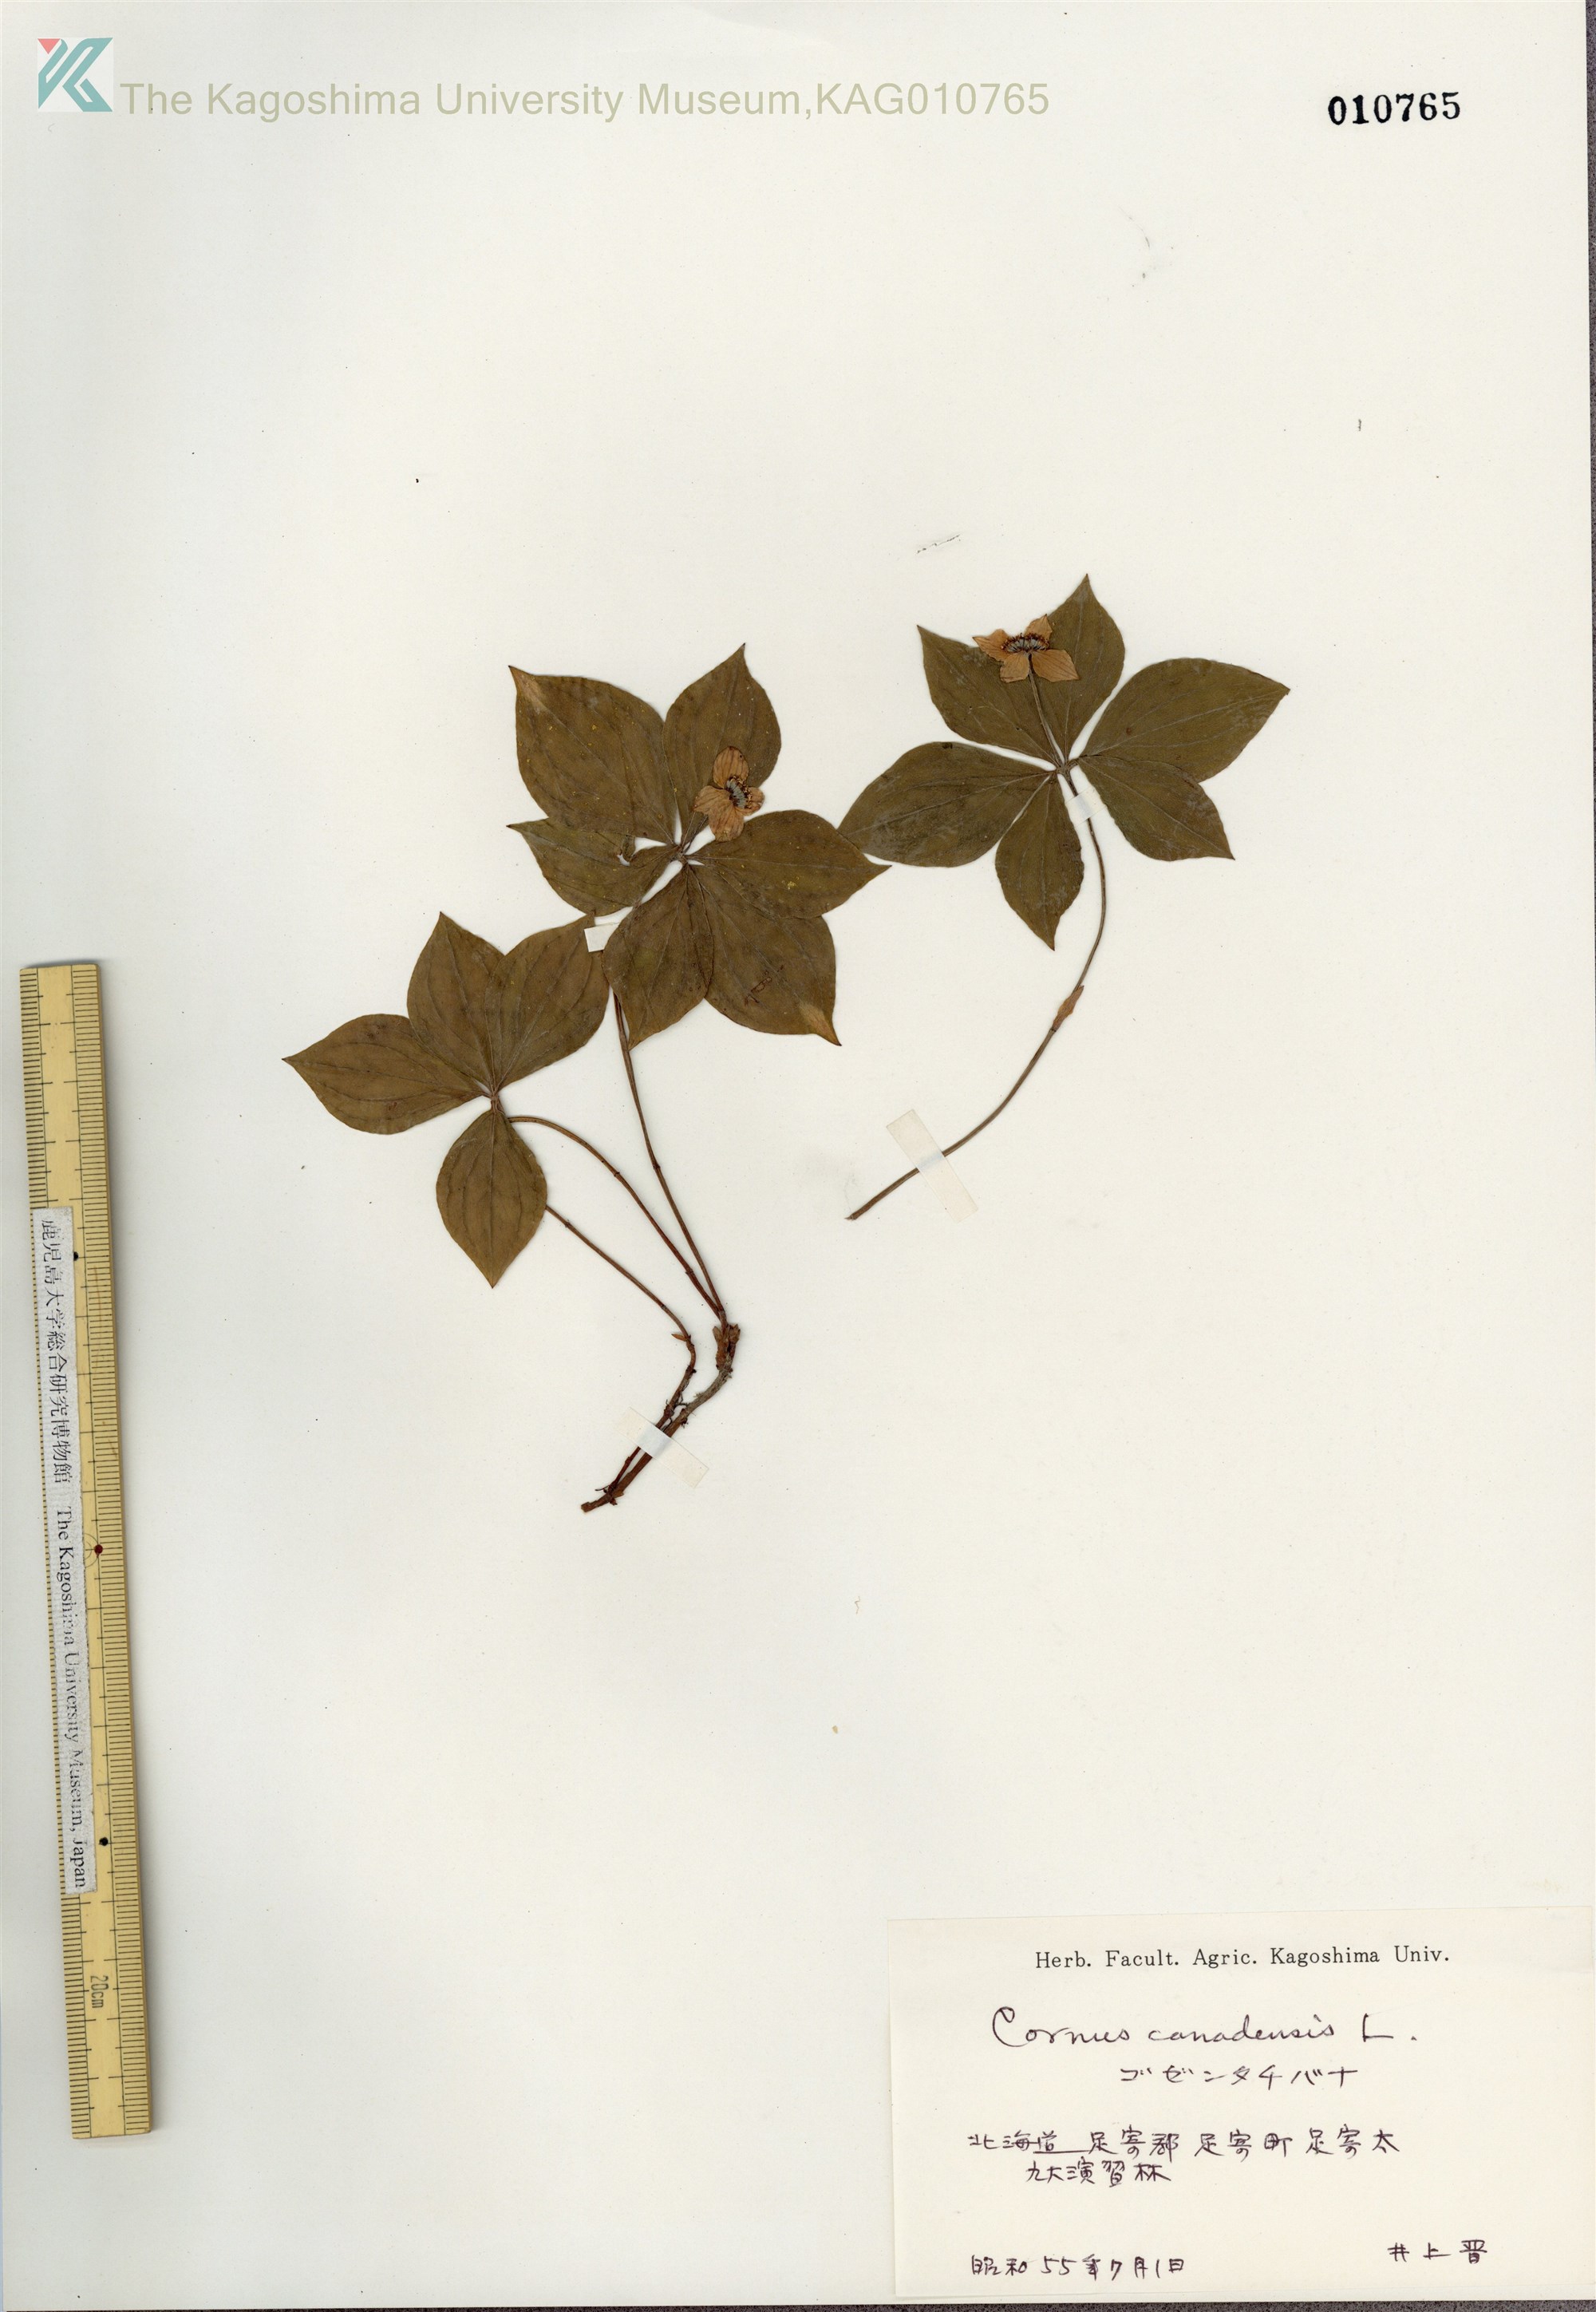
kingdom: Plantae
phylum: Tracheophyta
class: Magnoliopsida
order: Cornales
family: Cornaceae
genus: Cornus
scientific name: Cornus canadensis
